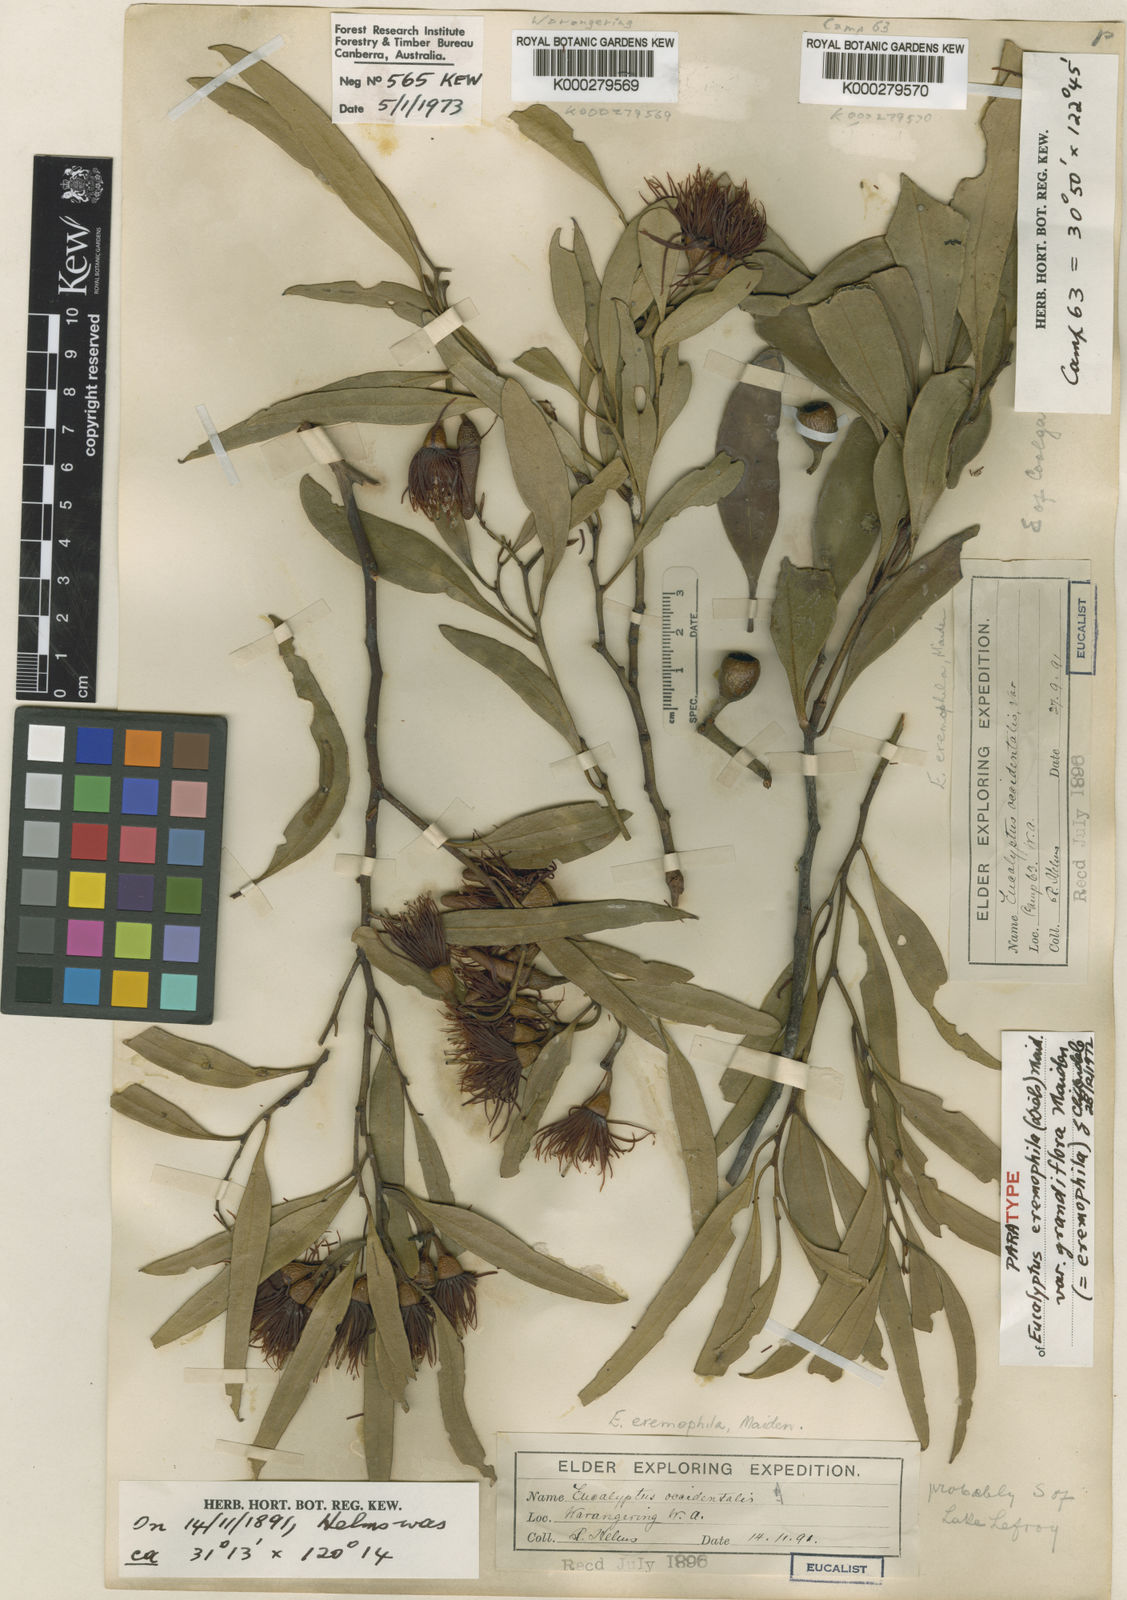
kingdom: Plantae
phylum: Tracheophyta
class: Magnoliopsida
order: Myrtales
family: Myrtaceae
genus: Eucalyptus
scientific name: Eucalyptus eremophila
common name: Tall sand mallee
